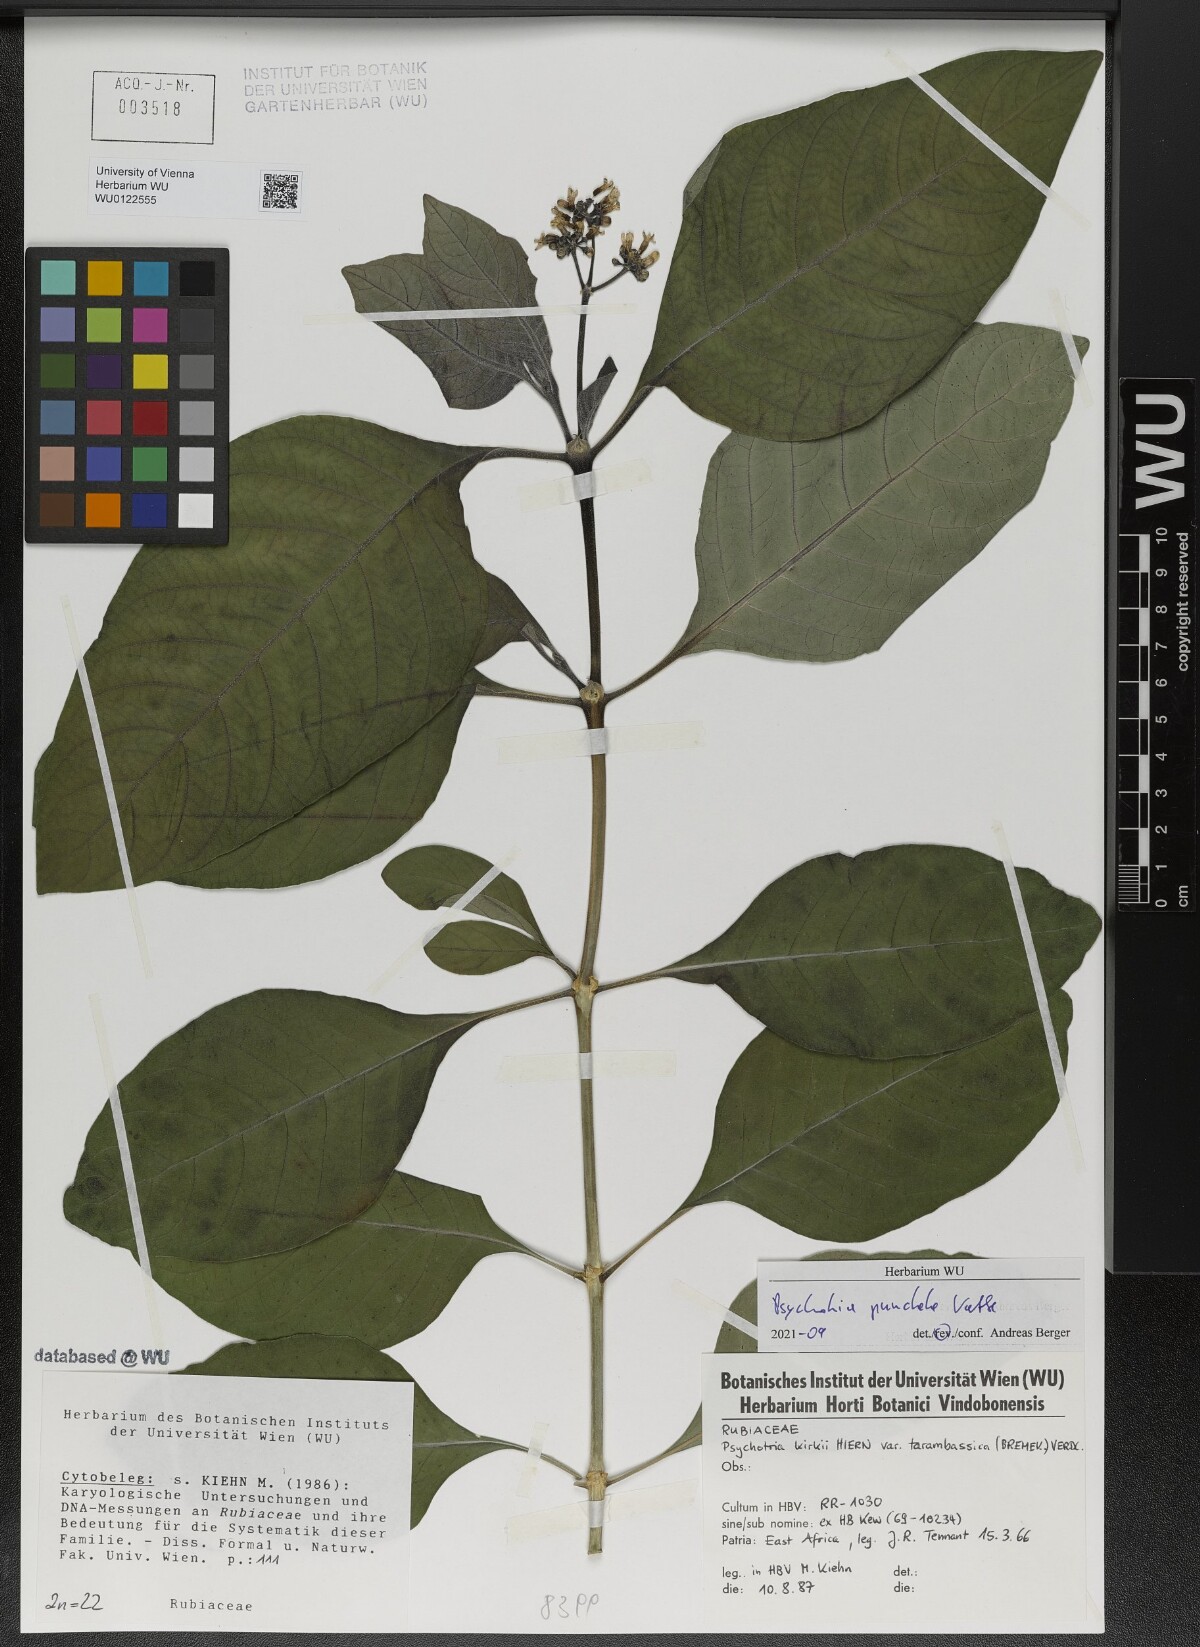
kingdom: Plantae
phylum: Tracheophyta
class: Magnoliopsida
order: Gentianales
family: Rubiaceae
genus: Psychotria
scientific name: Psychotria punctata
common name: Dotted wild coffee
